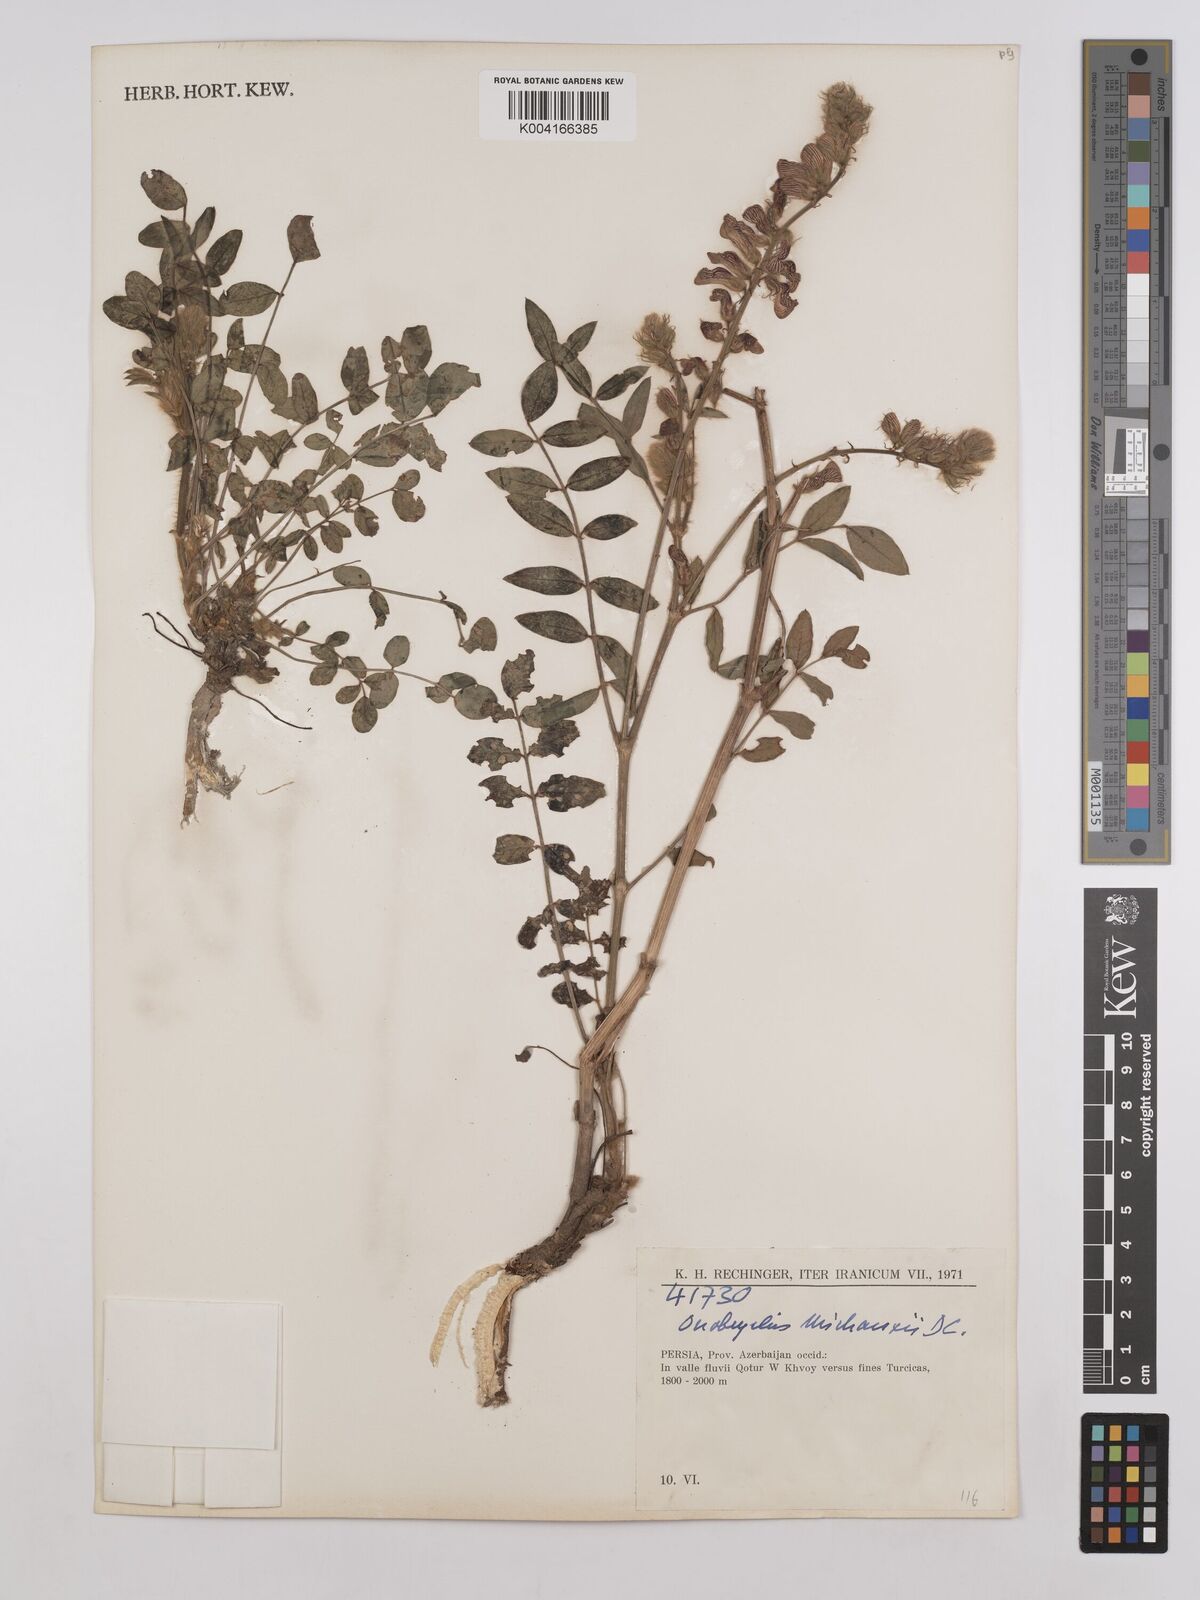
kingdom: Plantae
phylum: Tracheophyta
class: Magnoliopsida
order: Fabales
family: Fabaceae
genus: Onobrychis
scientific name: Onobrychis michauxii
